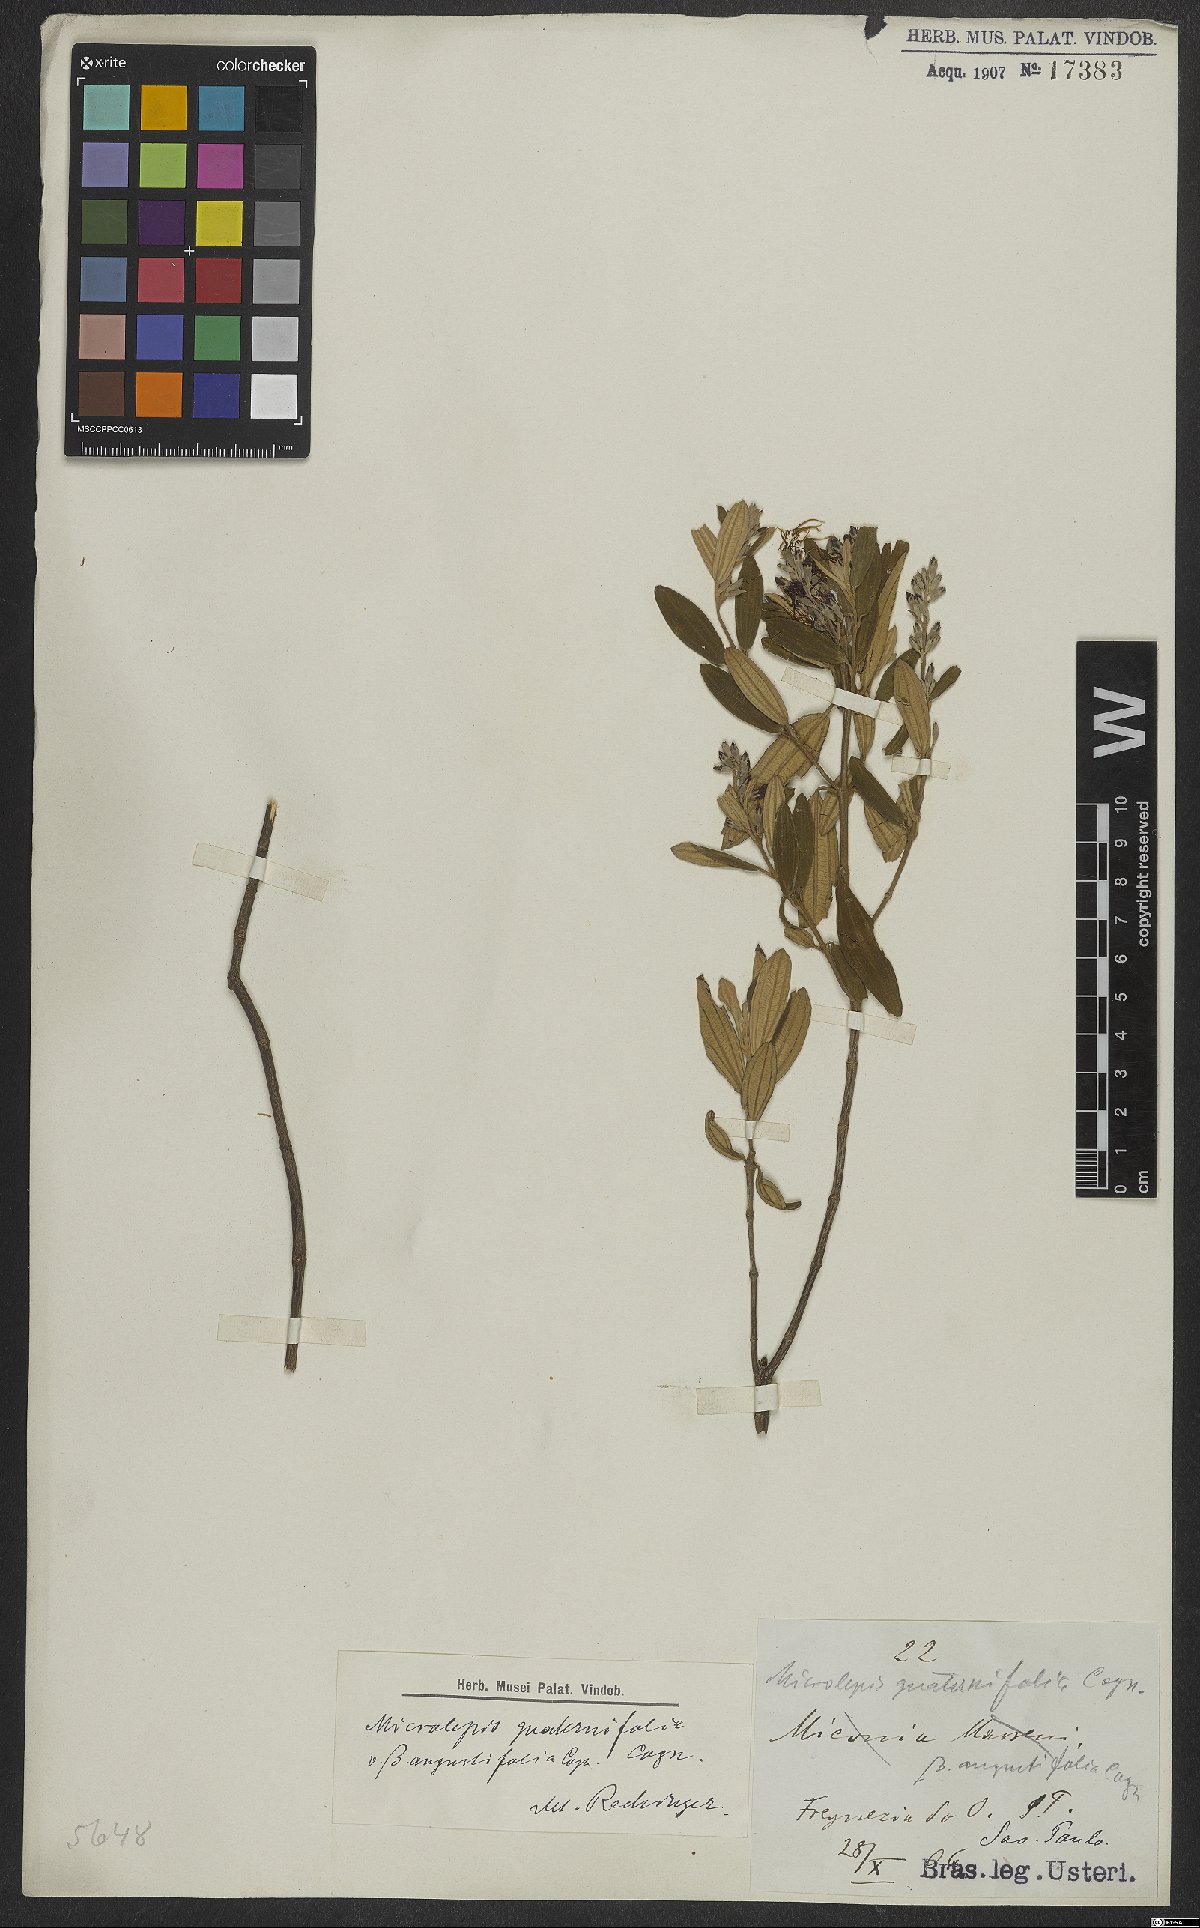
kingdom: Plantae
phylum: Tracheophyta
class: Magnoliopsida
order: Myrtales
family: Melastomataceae
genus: Pleroma
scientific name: Pleroma kleinii
